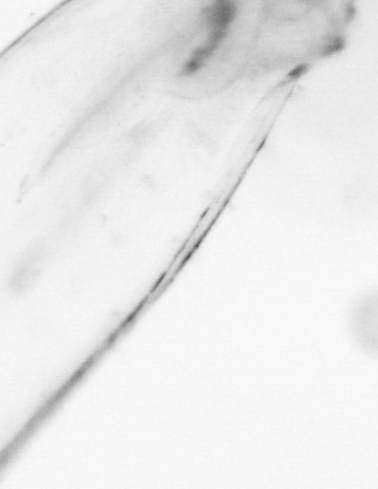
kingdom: Animalia
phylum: Chaetognatha
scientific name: Chaetognatha
